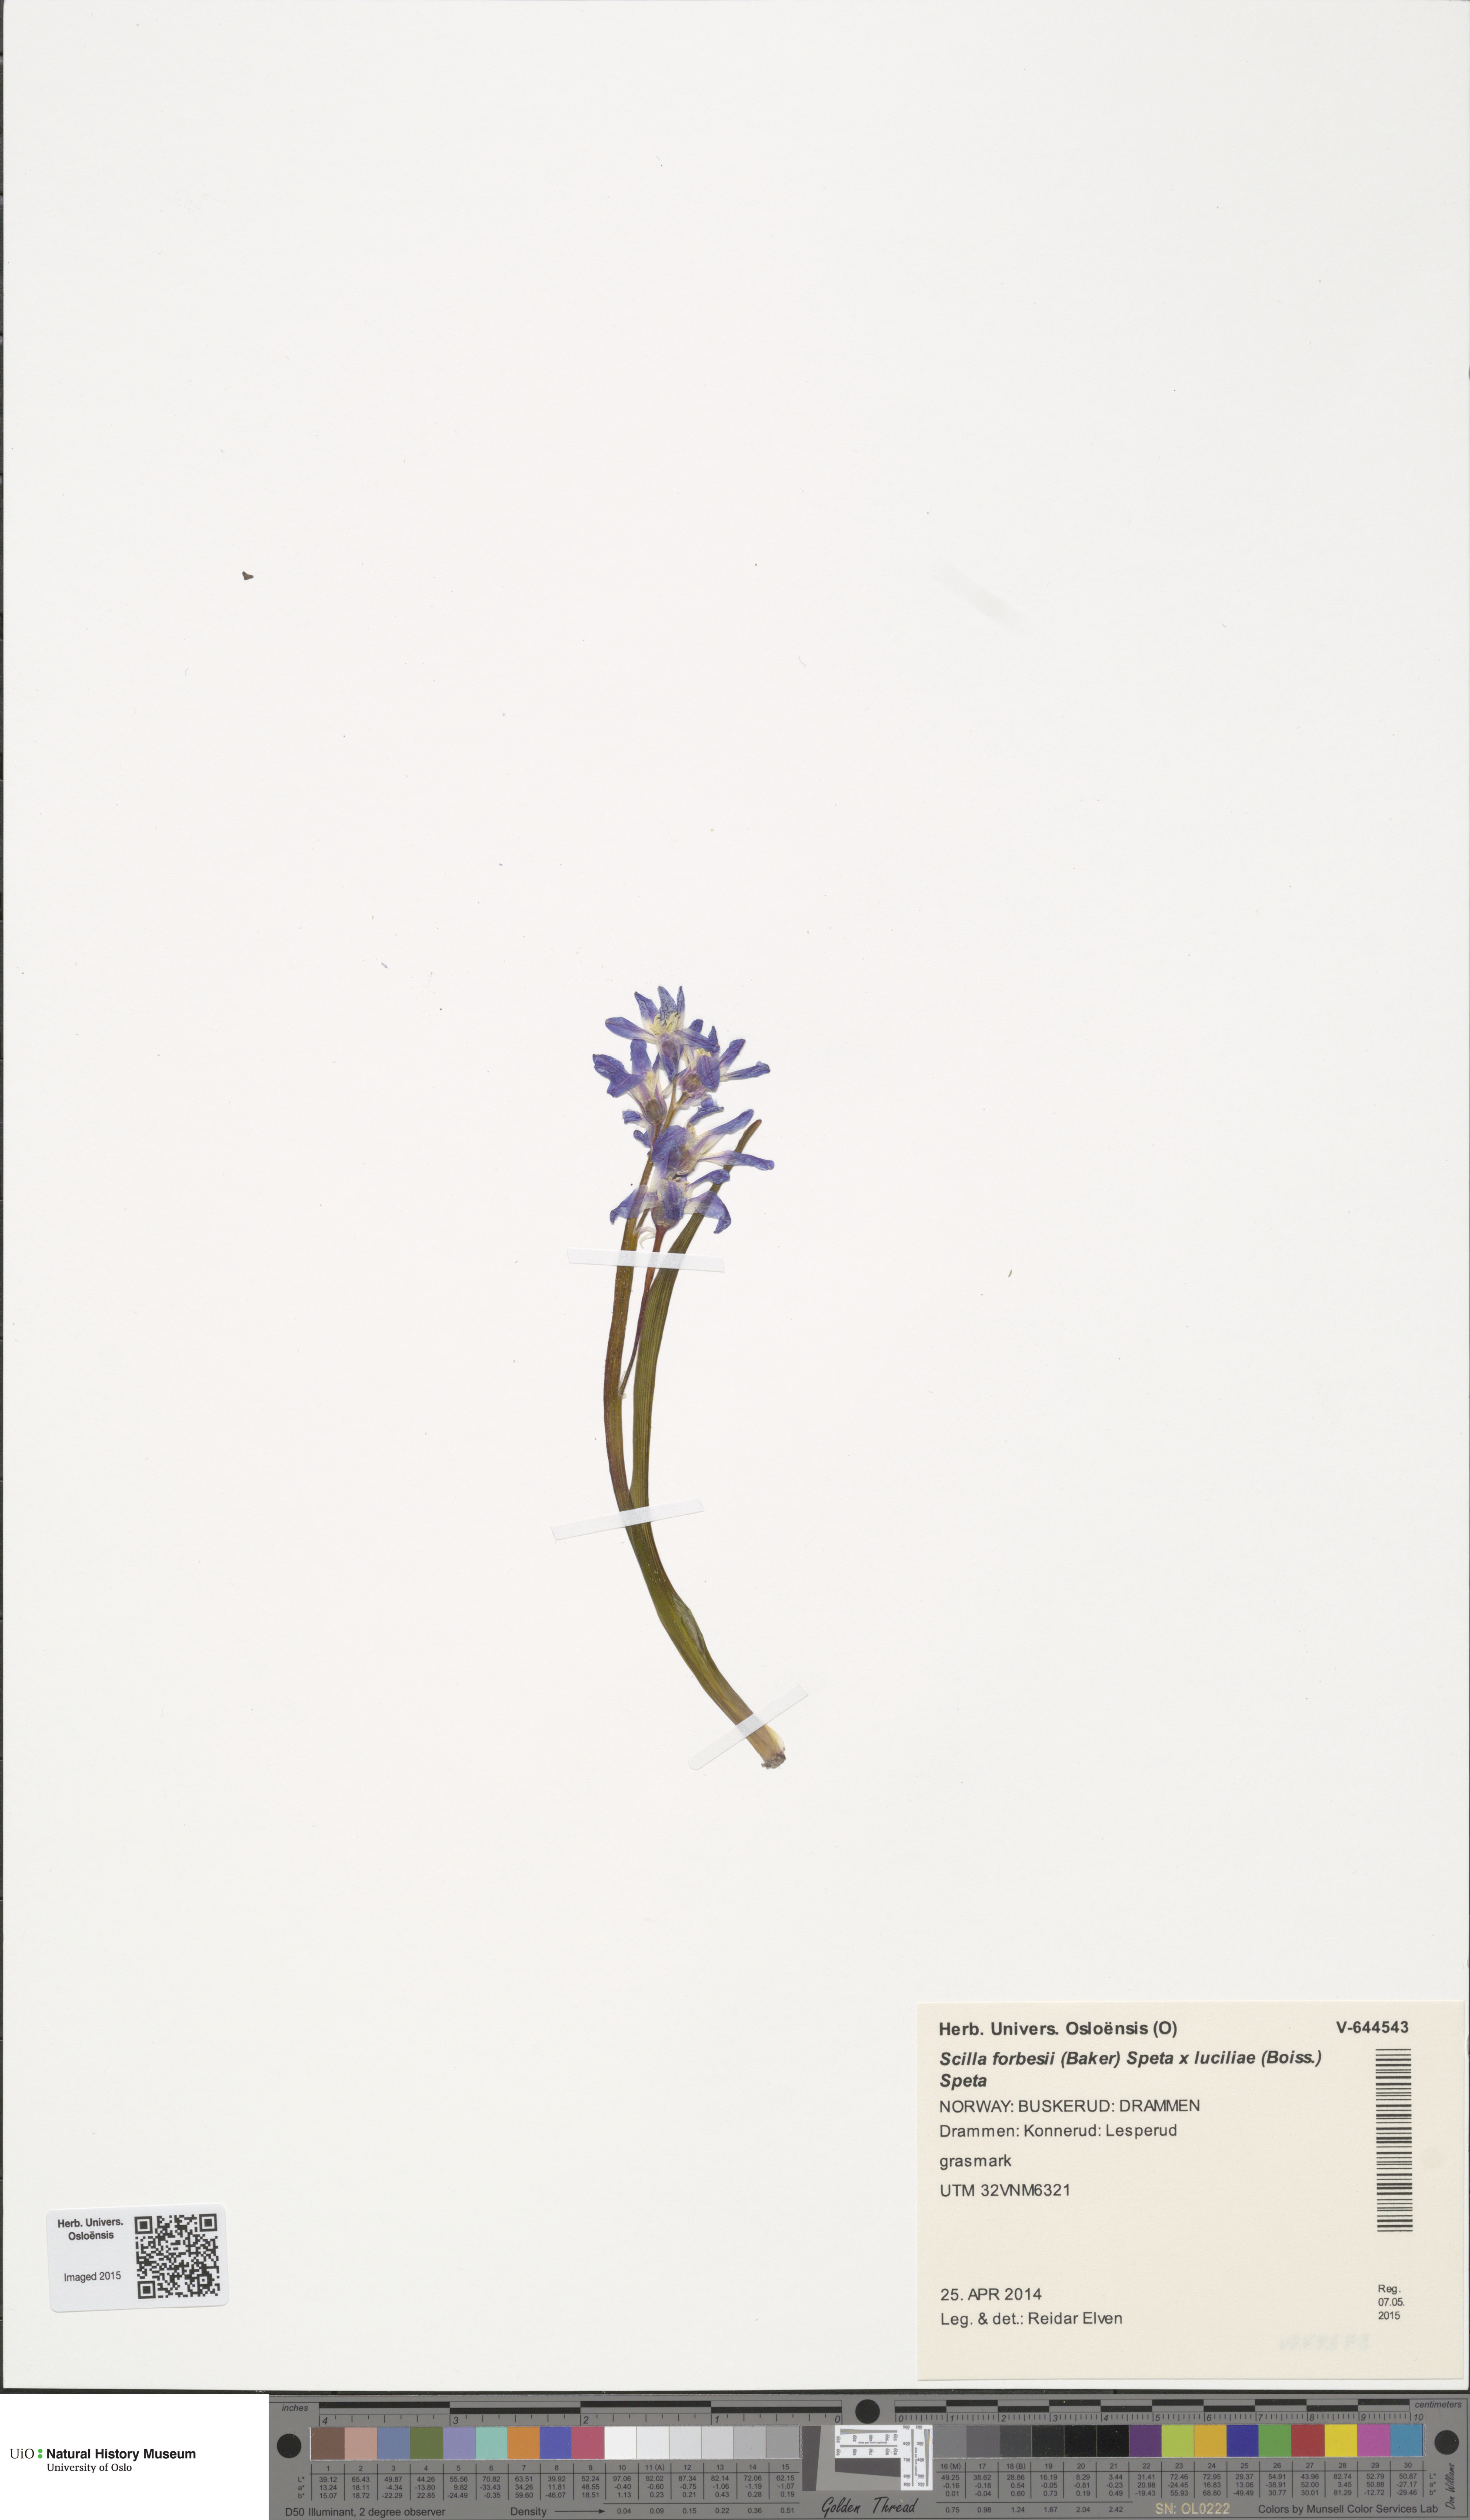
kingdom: Plantae
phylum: Tracheophyta
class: Liliopsida
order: Asparagales
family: Asparagaceae
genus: Scilla
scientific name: Scilla
